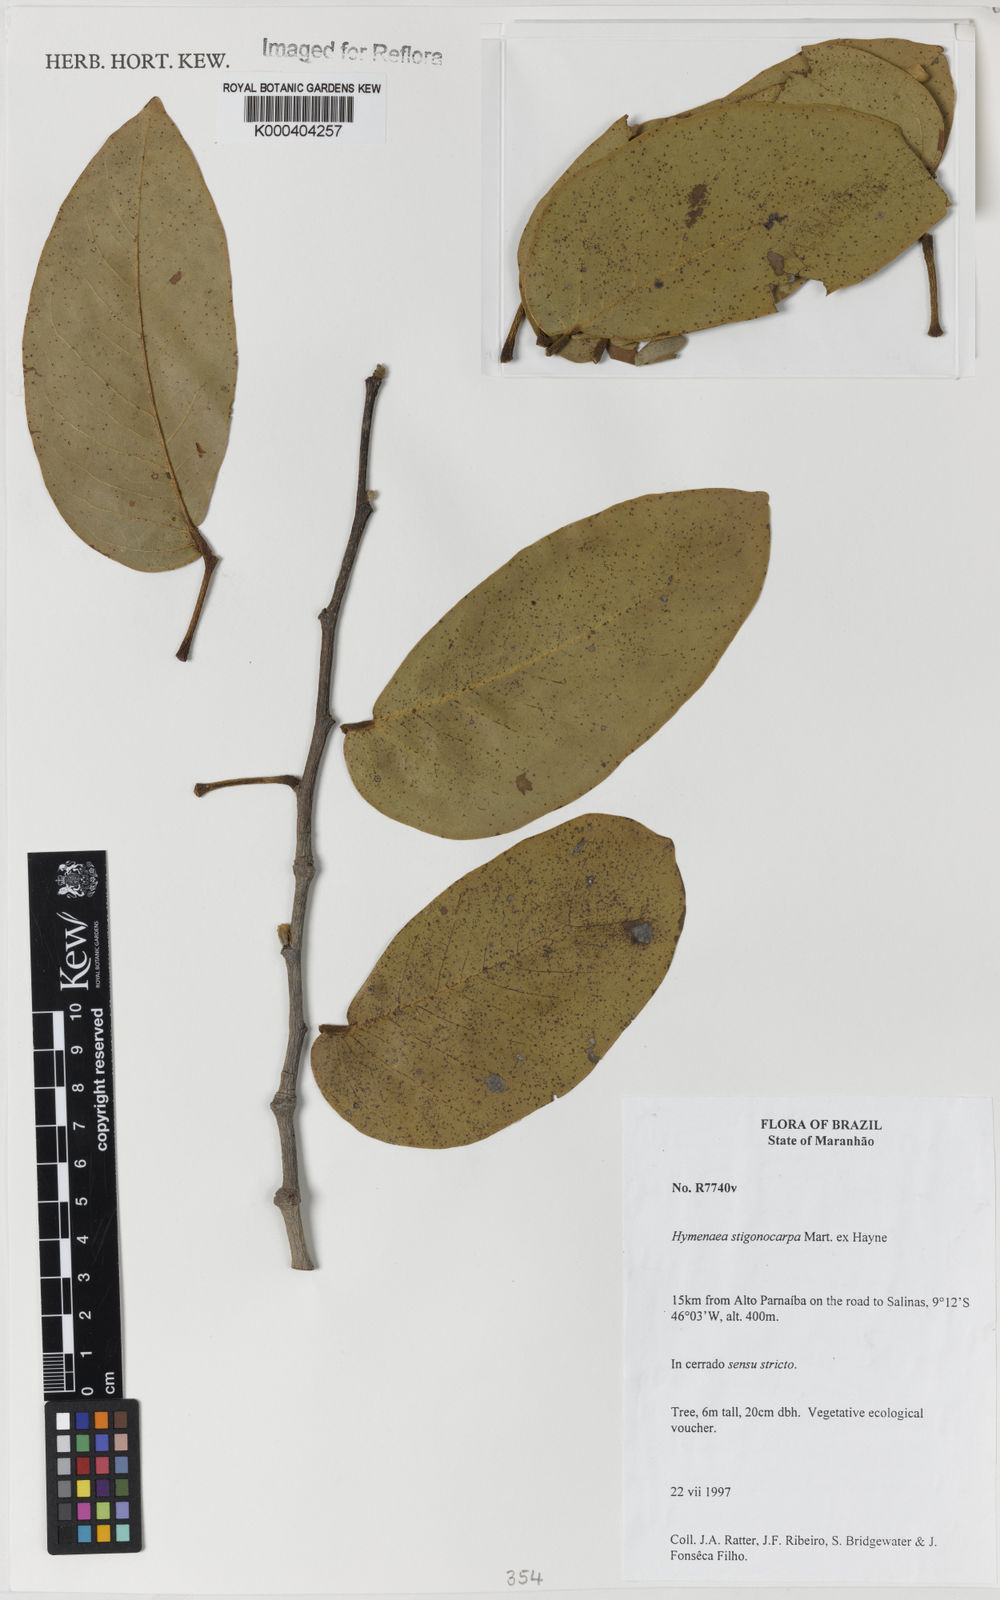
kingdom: Plantae
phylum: Tracheophyta
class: Magnoliopsida
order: Fabales
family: Fabaceae
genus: Hymenaea
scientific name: Hymenaea stigonocarpa
